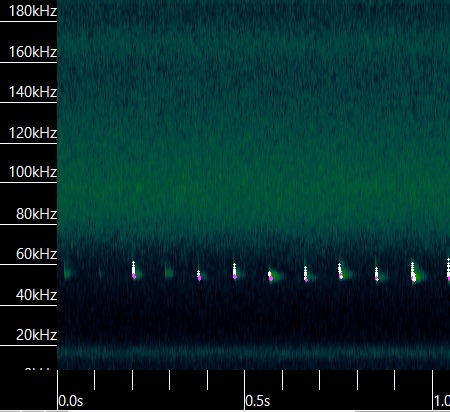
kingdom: Animalia
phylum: Chordata
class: Mammalia
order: Chiroptera
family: Vespertilionidae
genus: Pipistrellus
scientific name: Pipistrellus pygmaeus
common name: Dværgflagermus
